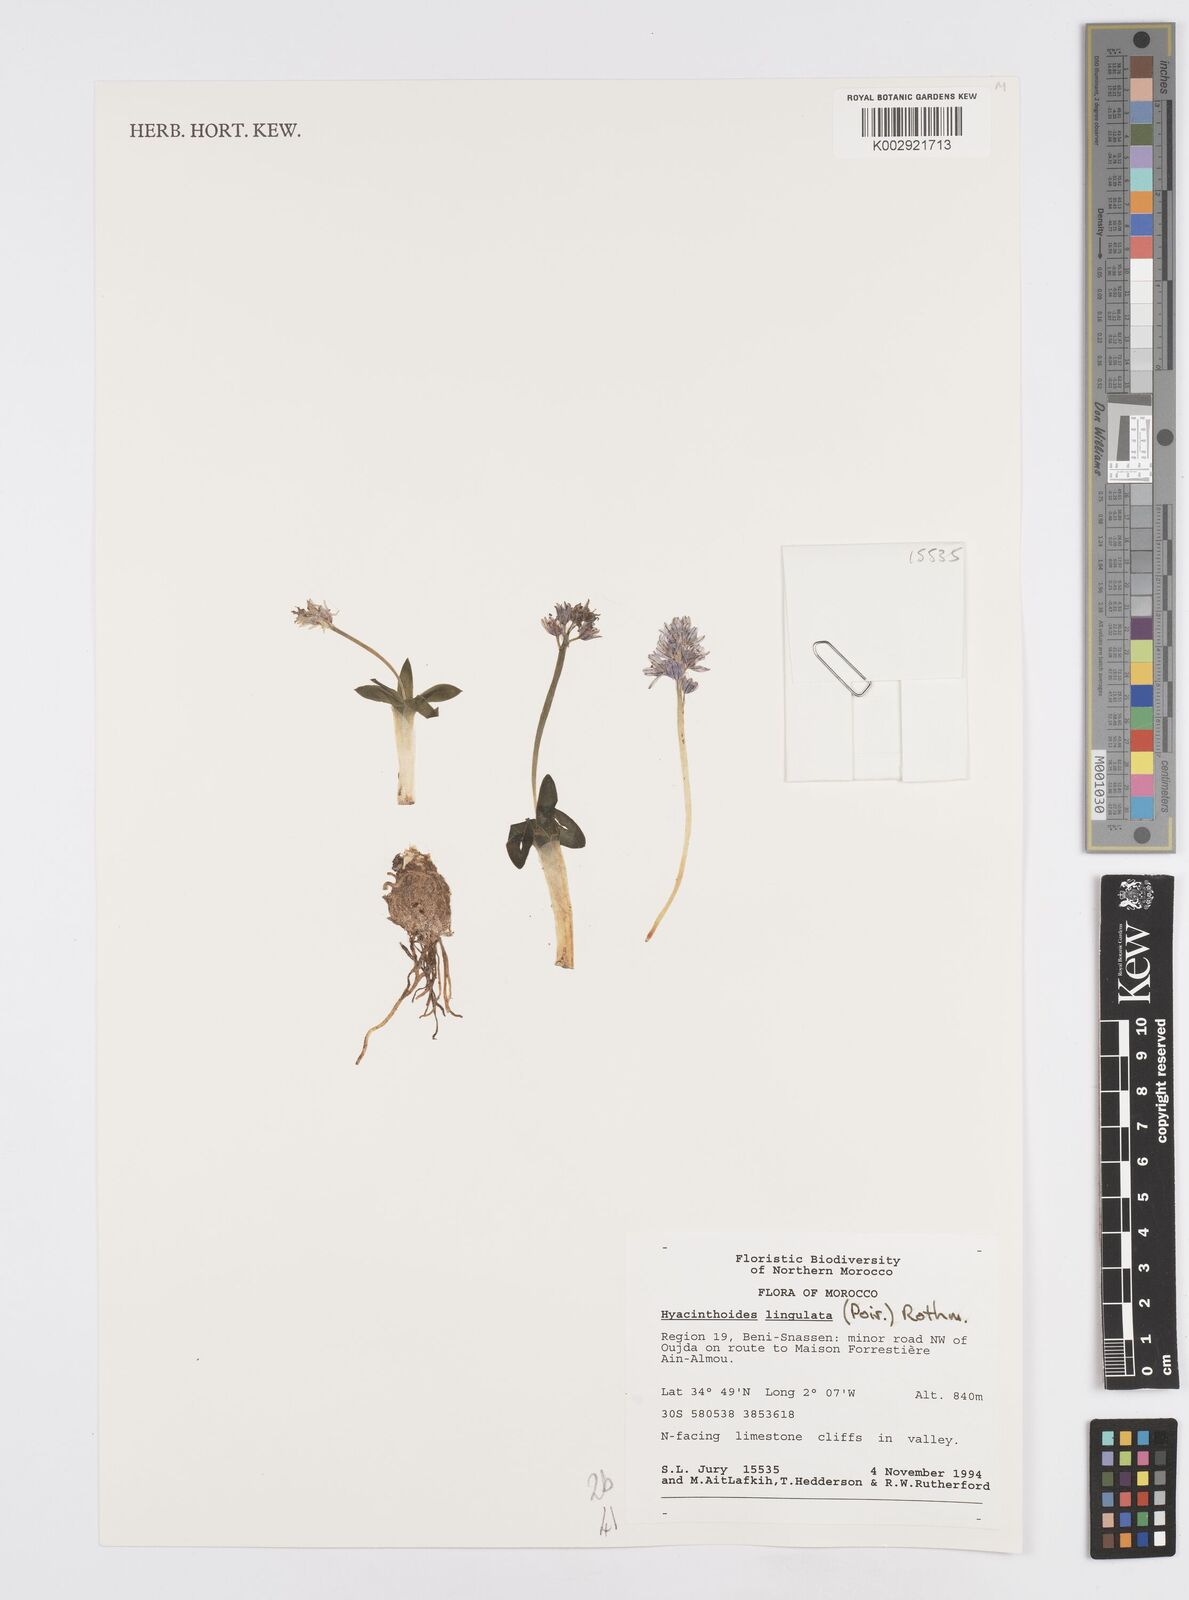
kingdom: Plantae
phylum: Tracheophyta
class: Liliopsida
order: Asparagales
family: Asparagaceae
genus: Hyacinthoides
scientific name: Hyacinthoides lingulata
